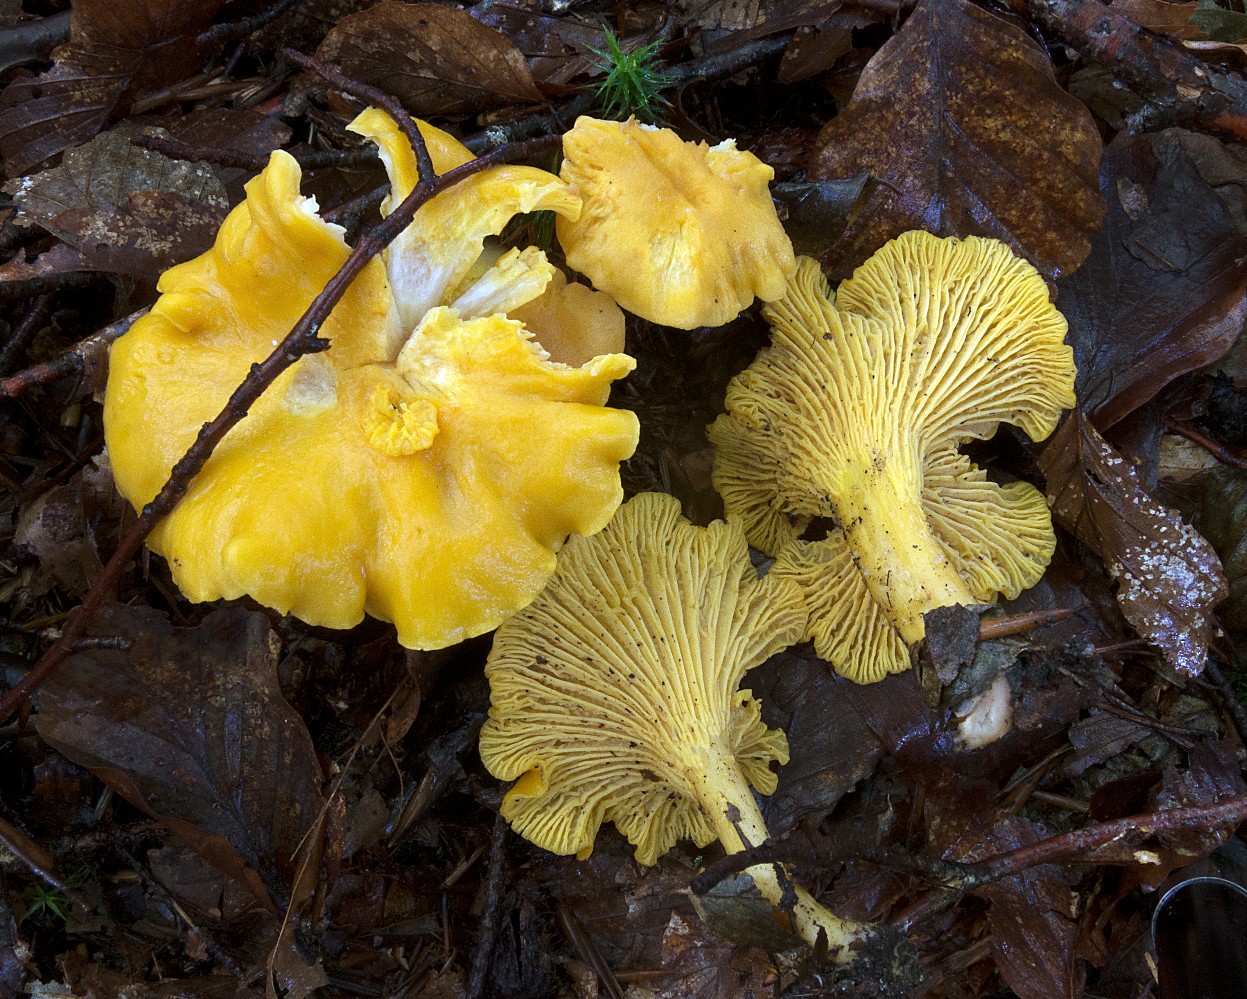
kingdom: Fungi
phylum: Basidiomycota
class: Agaricomycetes
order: Cantharellales
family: Hydnaceae
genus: Cantharellus
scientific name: Cantharellus cibarius
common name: almindelig kantarel
